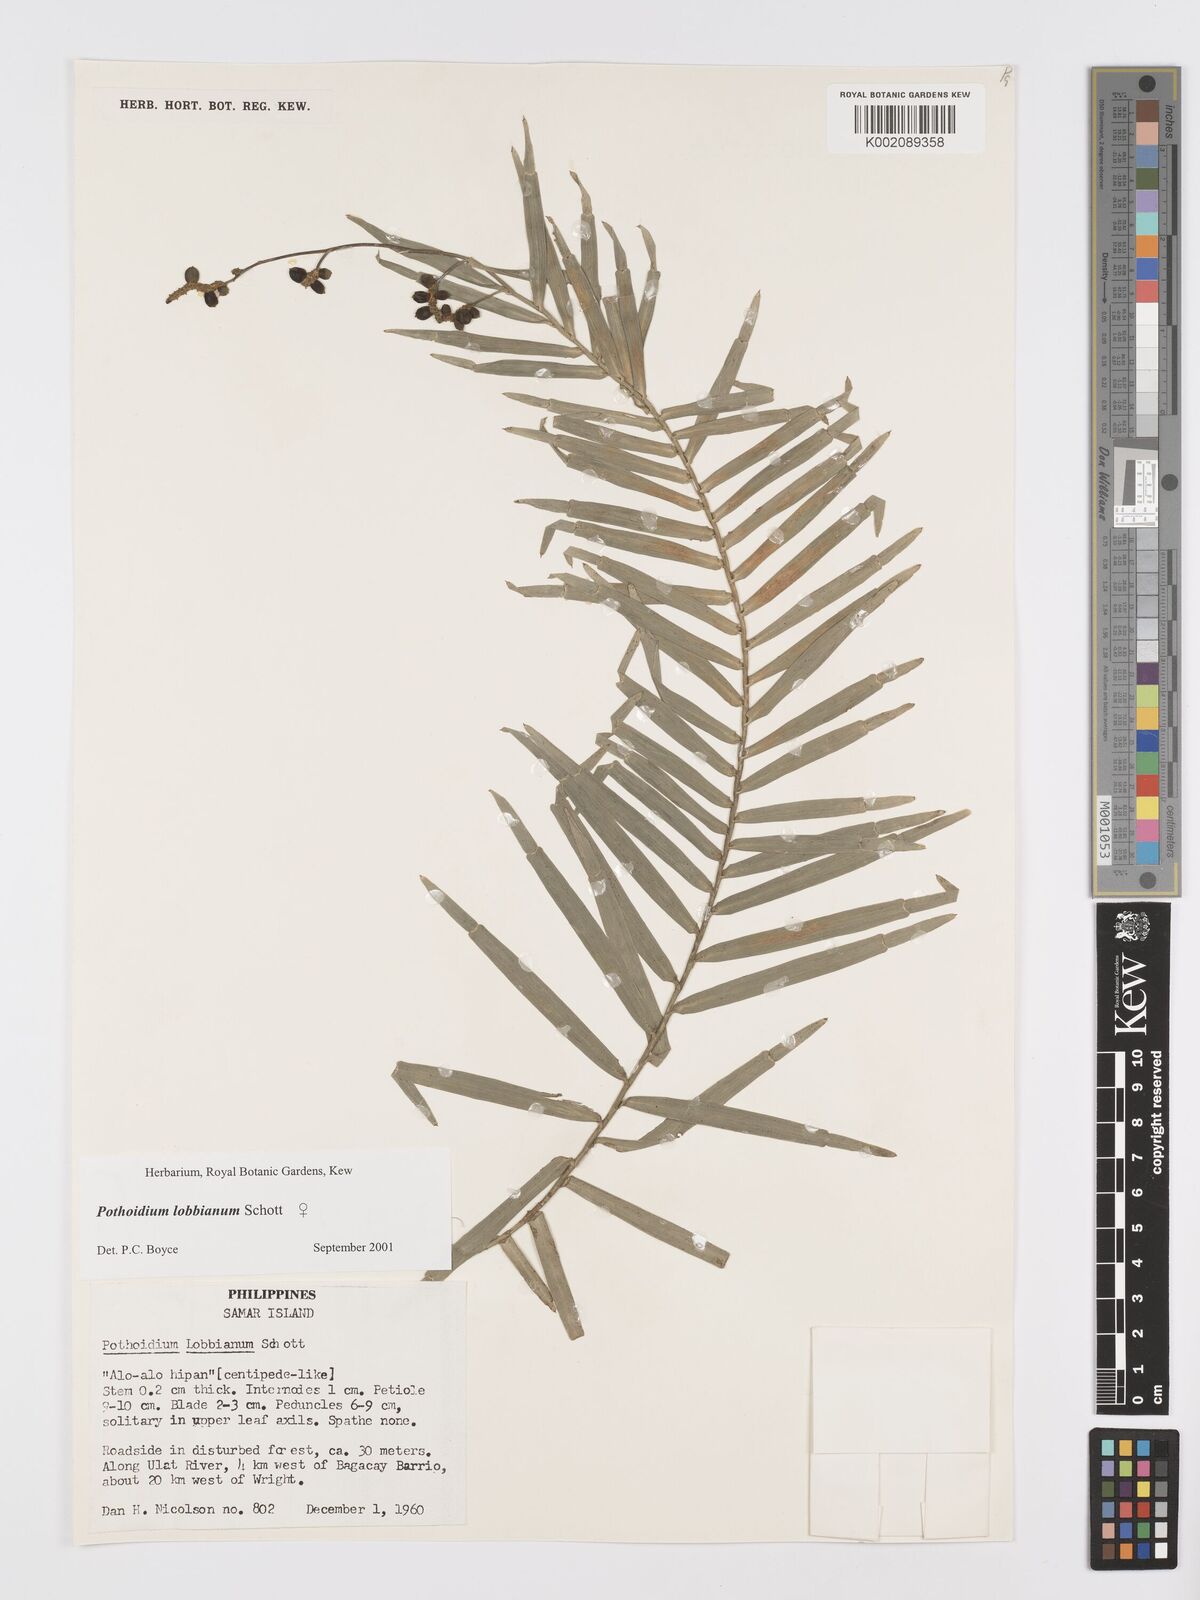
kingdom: Plantae
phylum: Tracheophyta
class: Liliopsida
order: Alismatales
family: Araceae
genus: Pothoidium
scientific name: Pothoidium lobbianum
